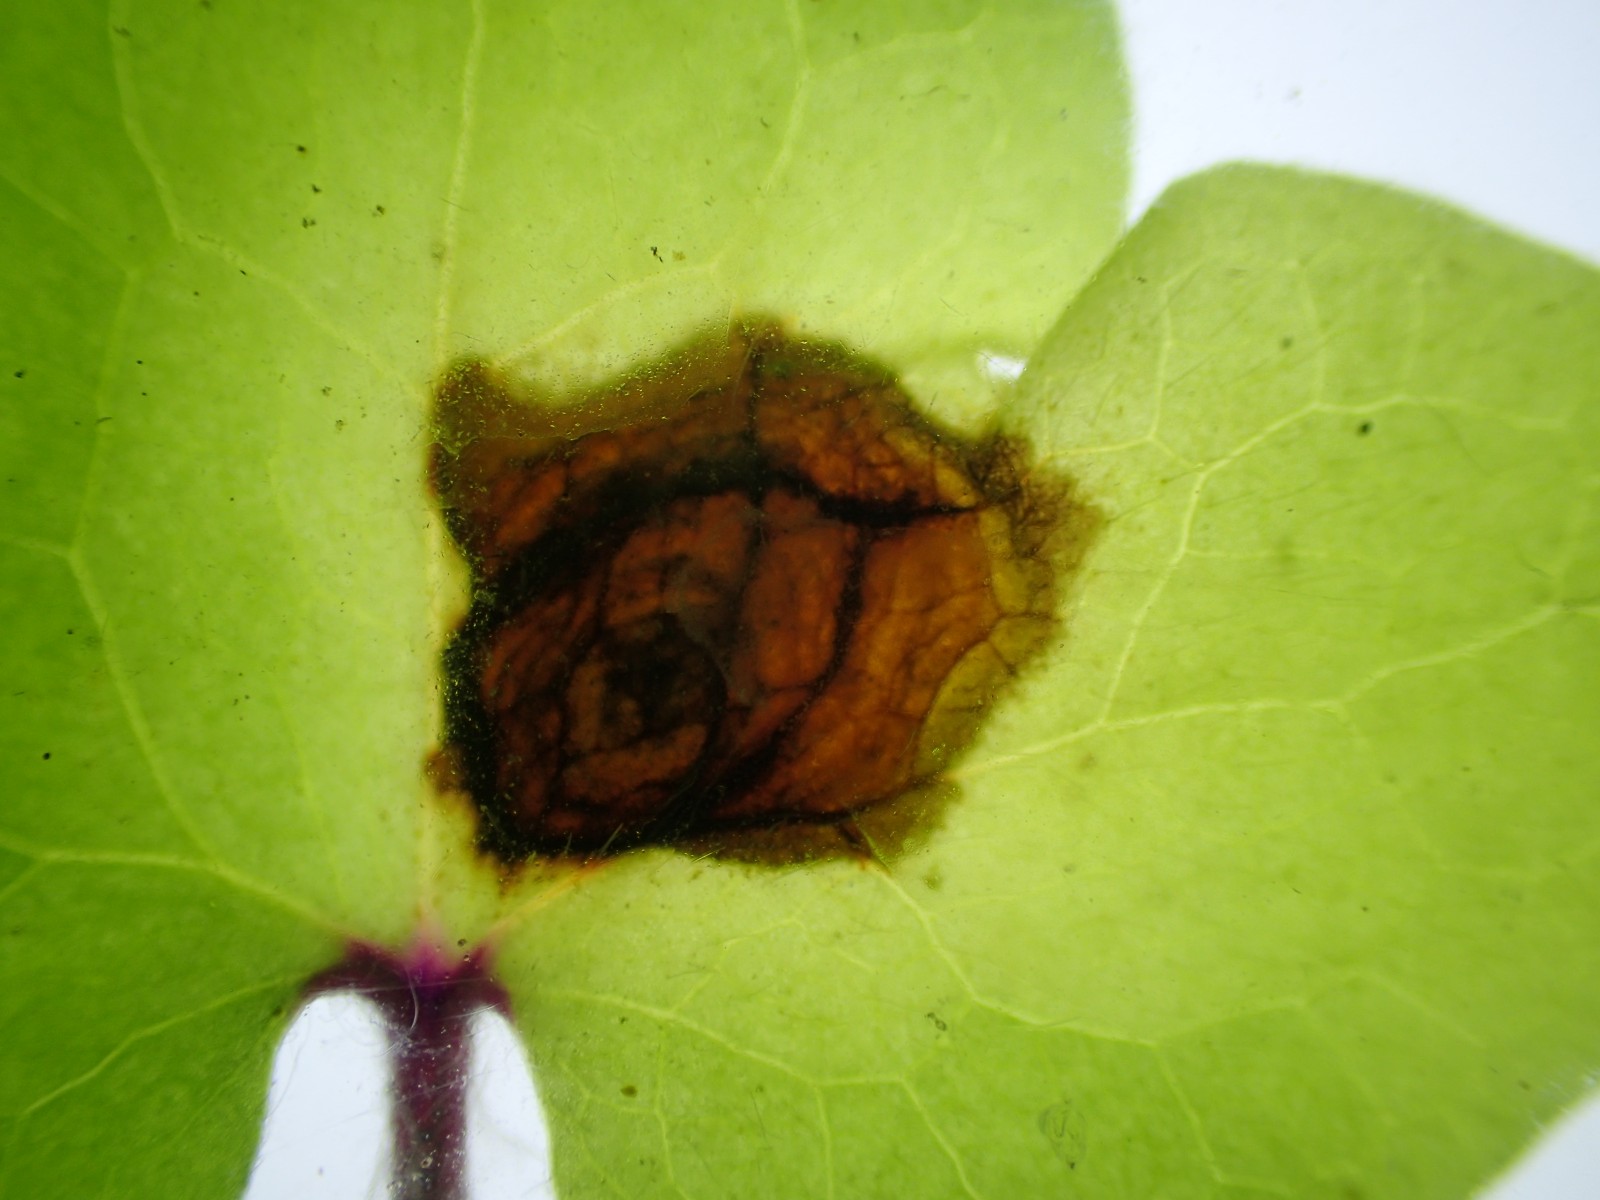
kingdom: Fungi
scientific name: Fungi
